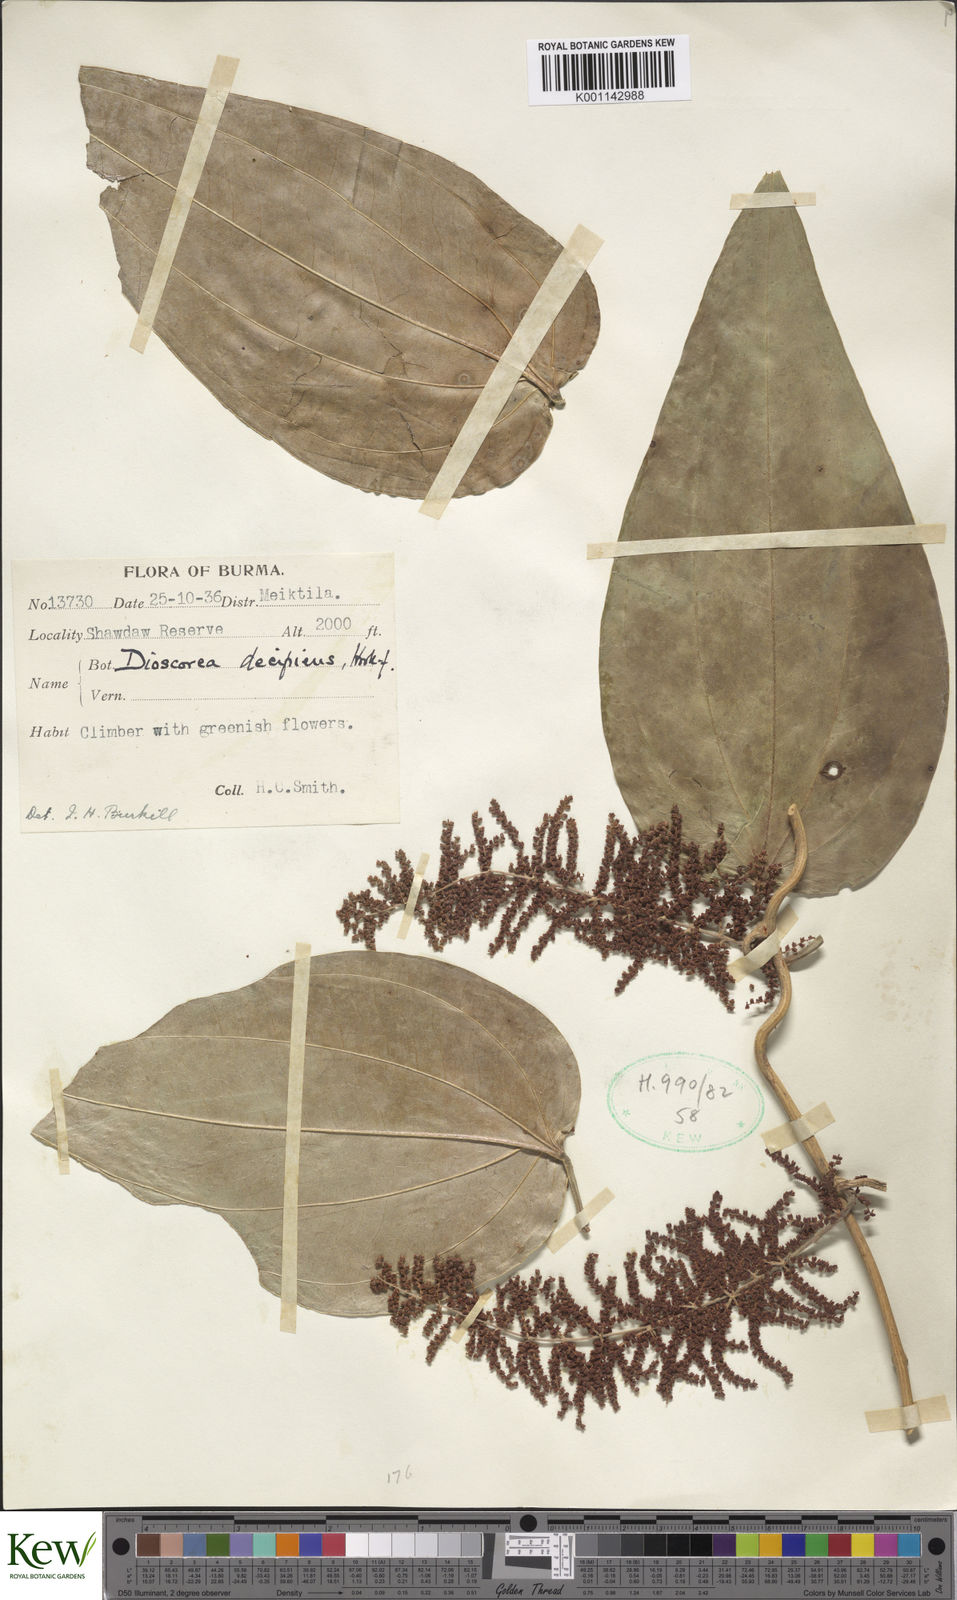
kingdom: Plantae
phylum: Tracheophyta
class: Liliopsida
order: Dioscoreales
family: Dioscoreaceae
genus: Dioscorea
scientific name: Dioscorea decipiens
